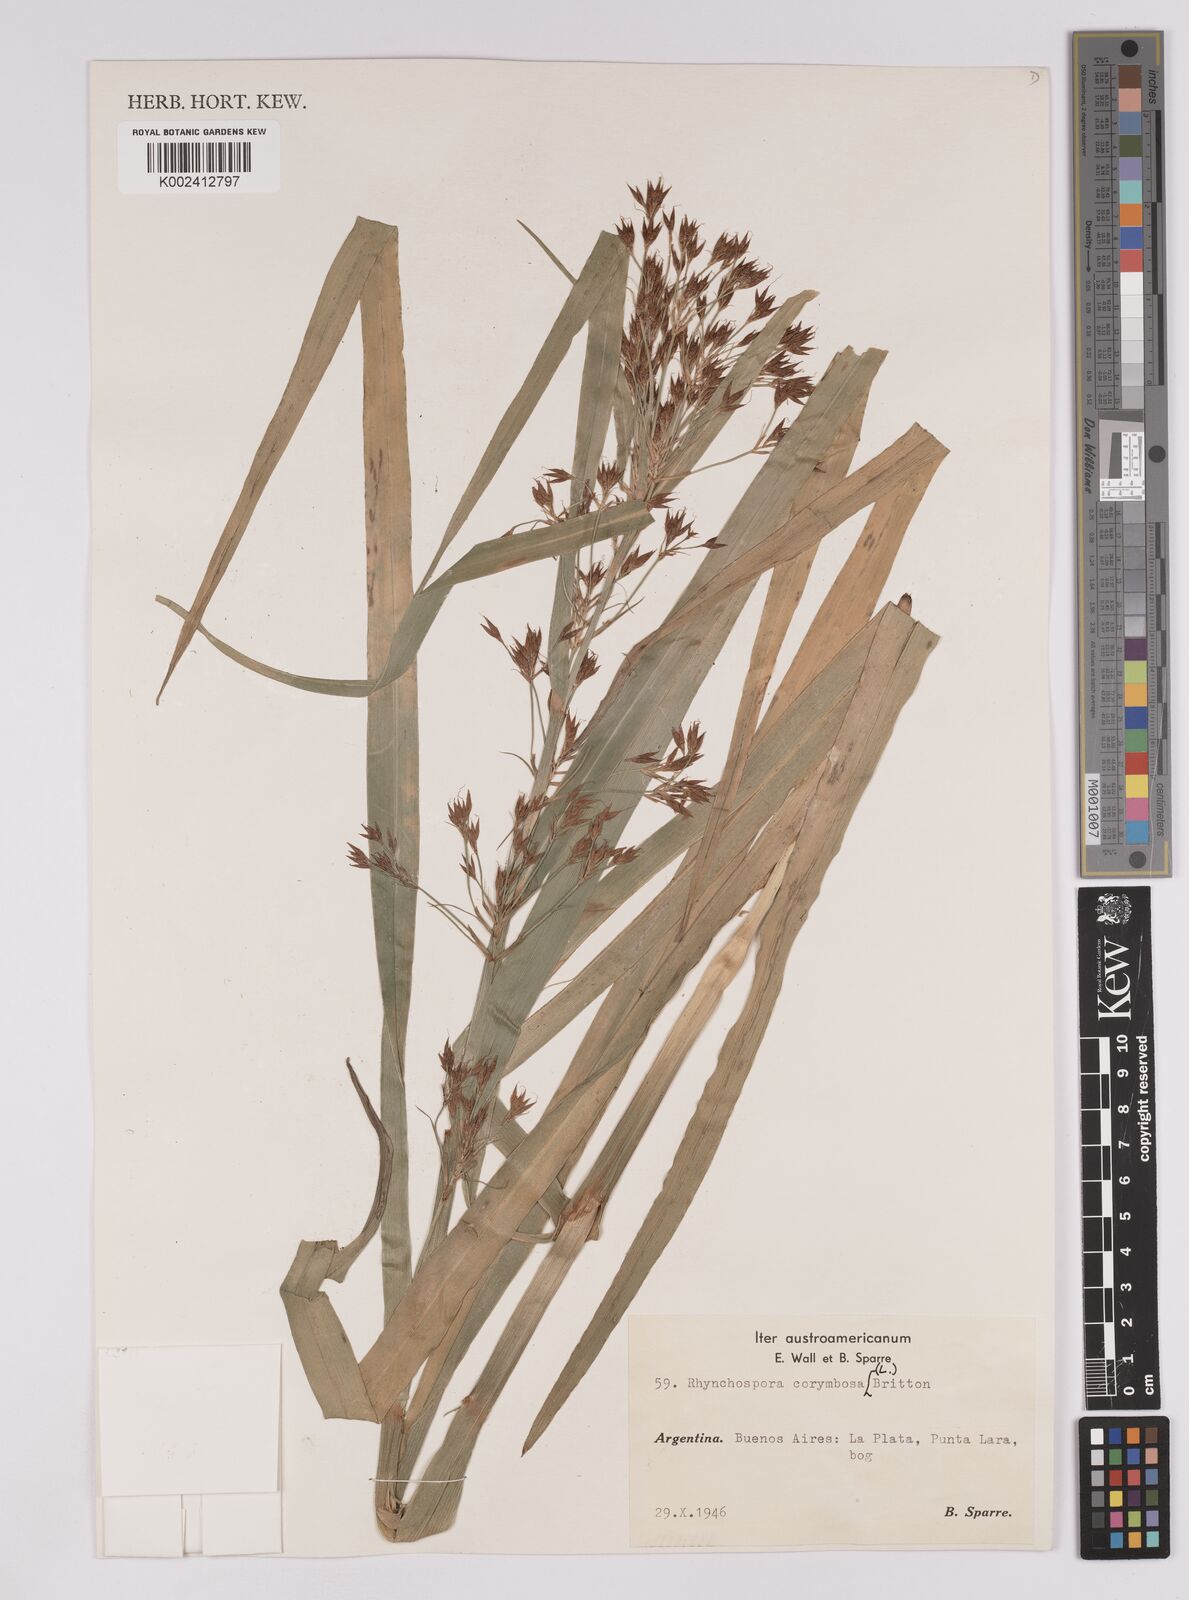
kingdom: Plantae
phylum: Tracheophyta
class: Liliopsida
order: Poales
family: Cyperaceae
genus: Rhynchospora
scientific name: Rhynchospora corymbosa
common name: Golden beak sedge
